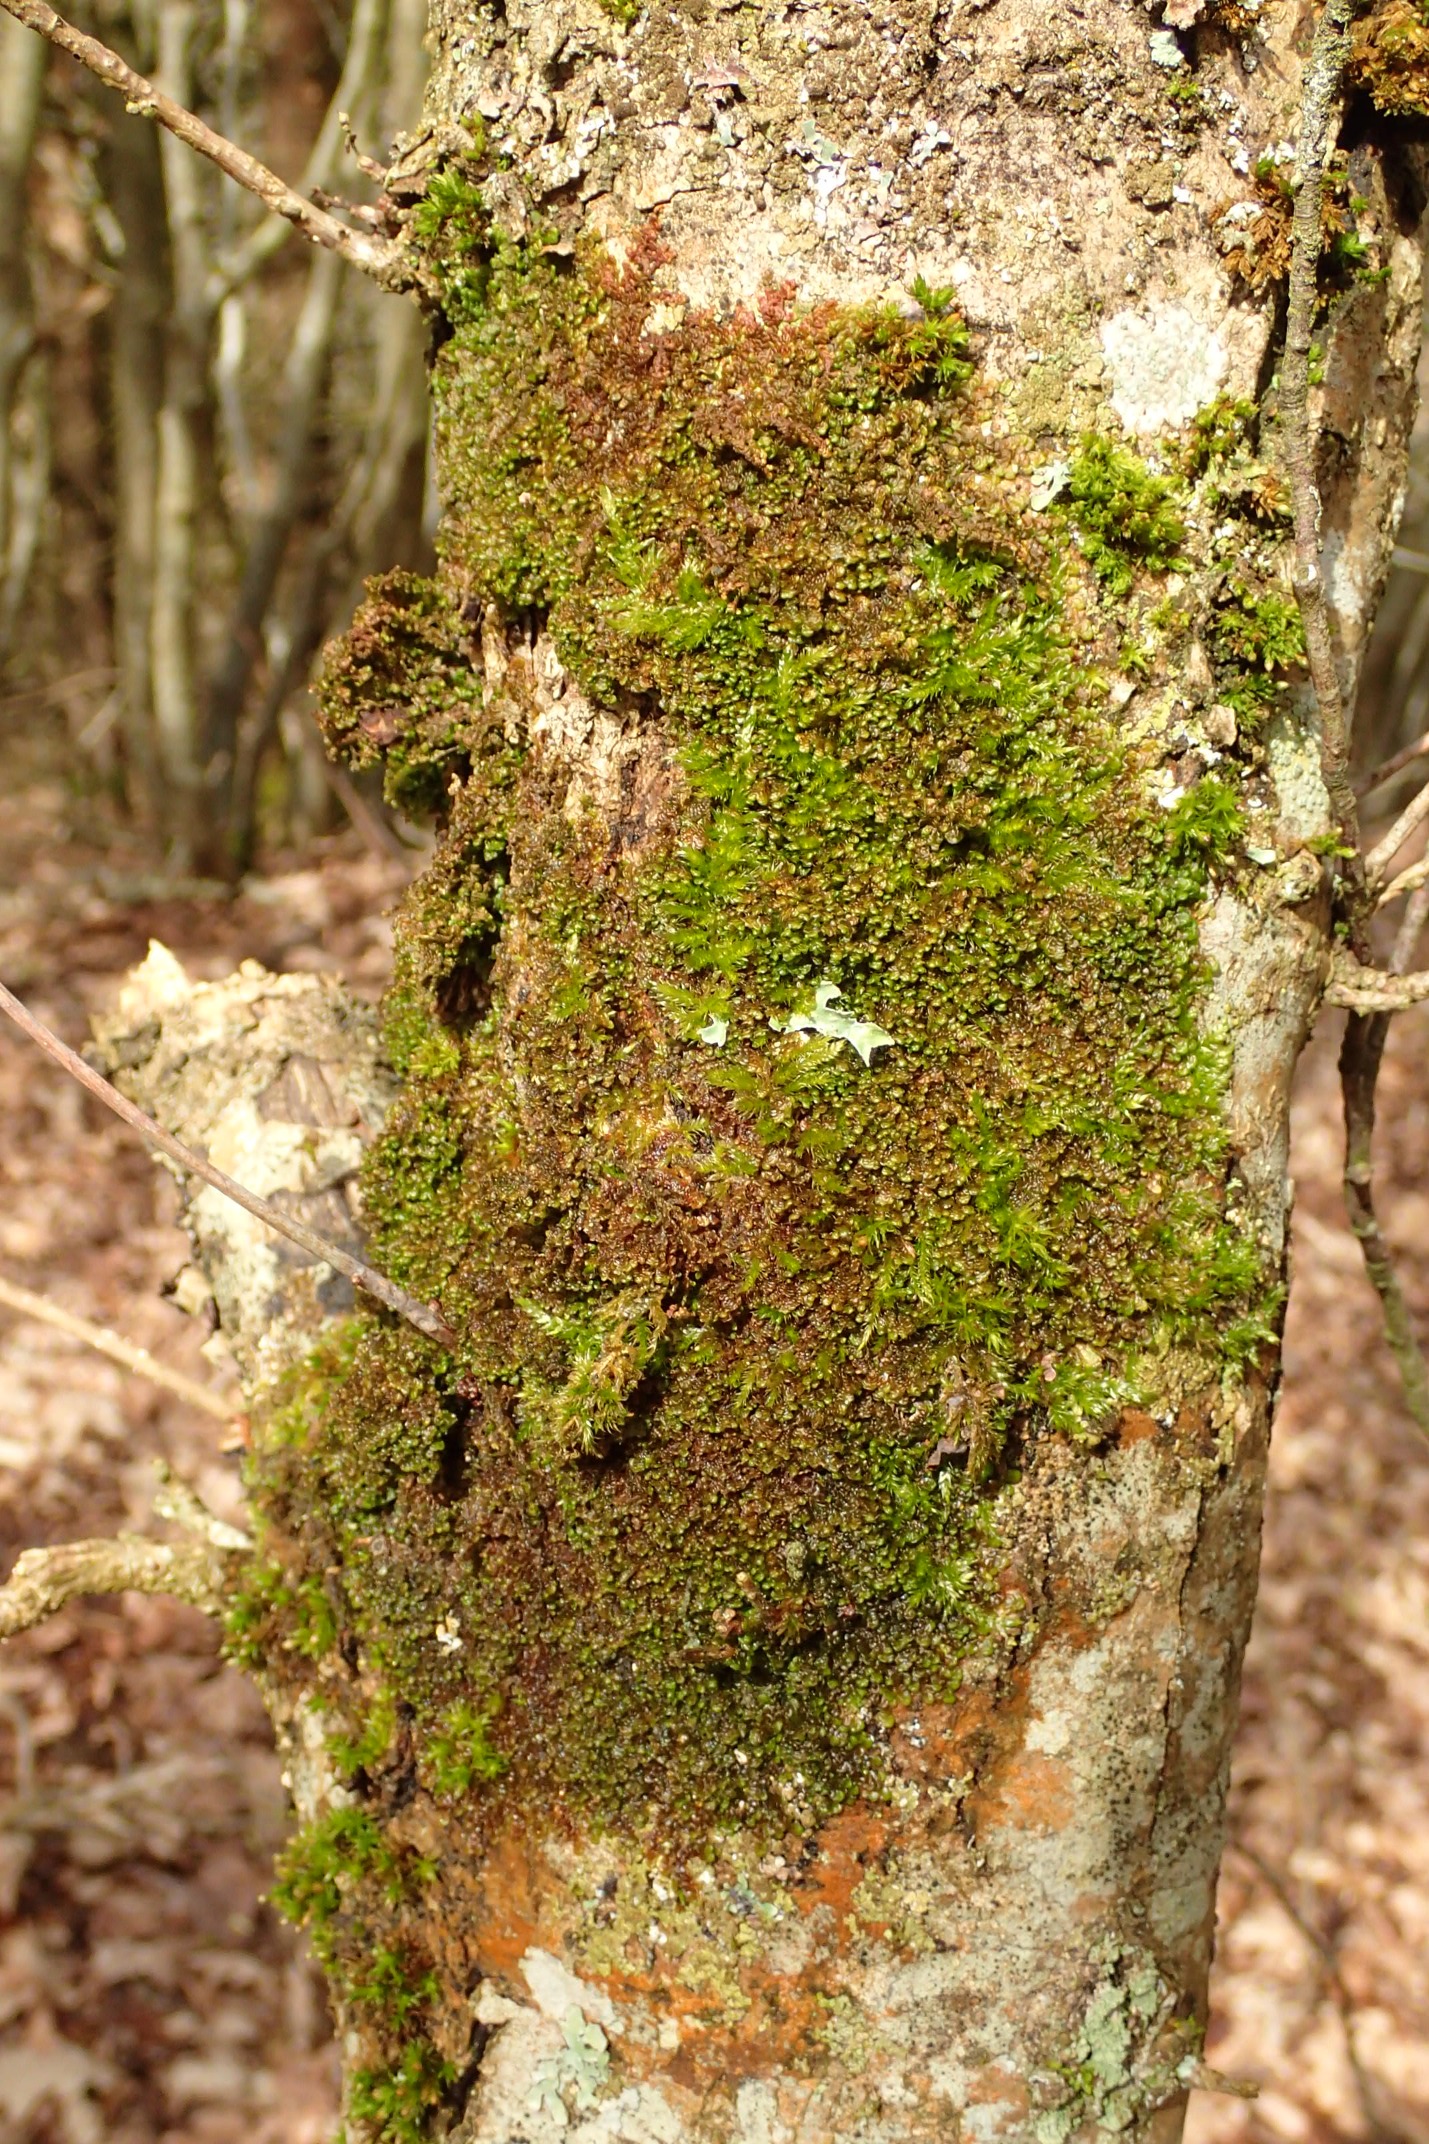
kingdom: Plantae
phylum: Marchantiophyta
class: Jungermanniopsida
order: Porellales
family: Frullaniaceae
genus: Frullania
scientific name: Frullania dilatata
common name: Mat bronzemos
